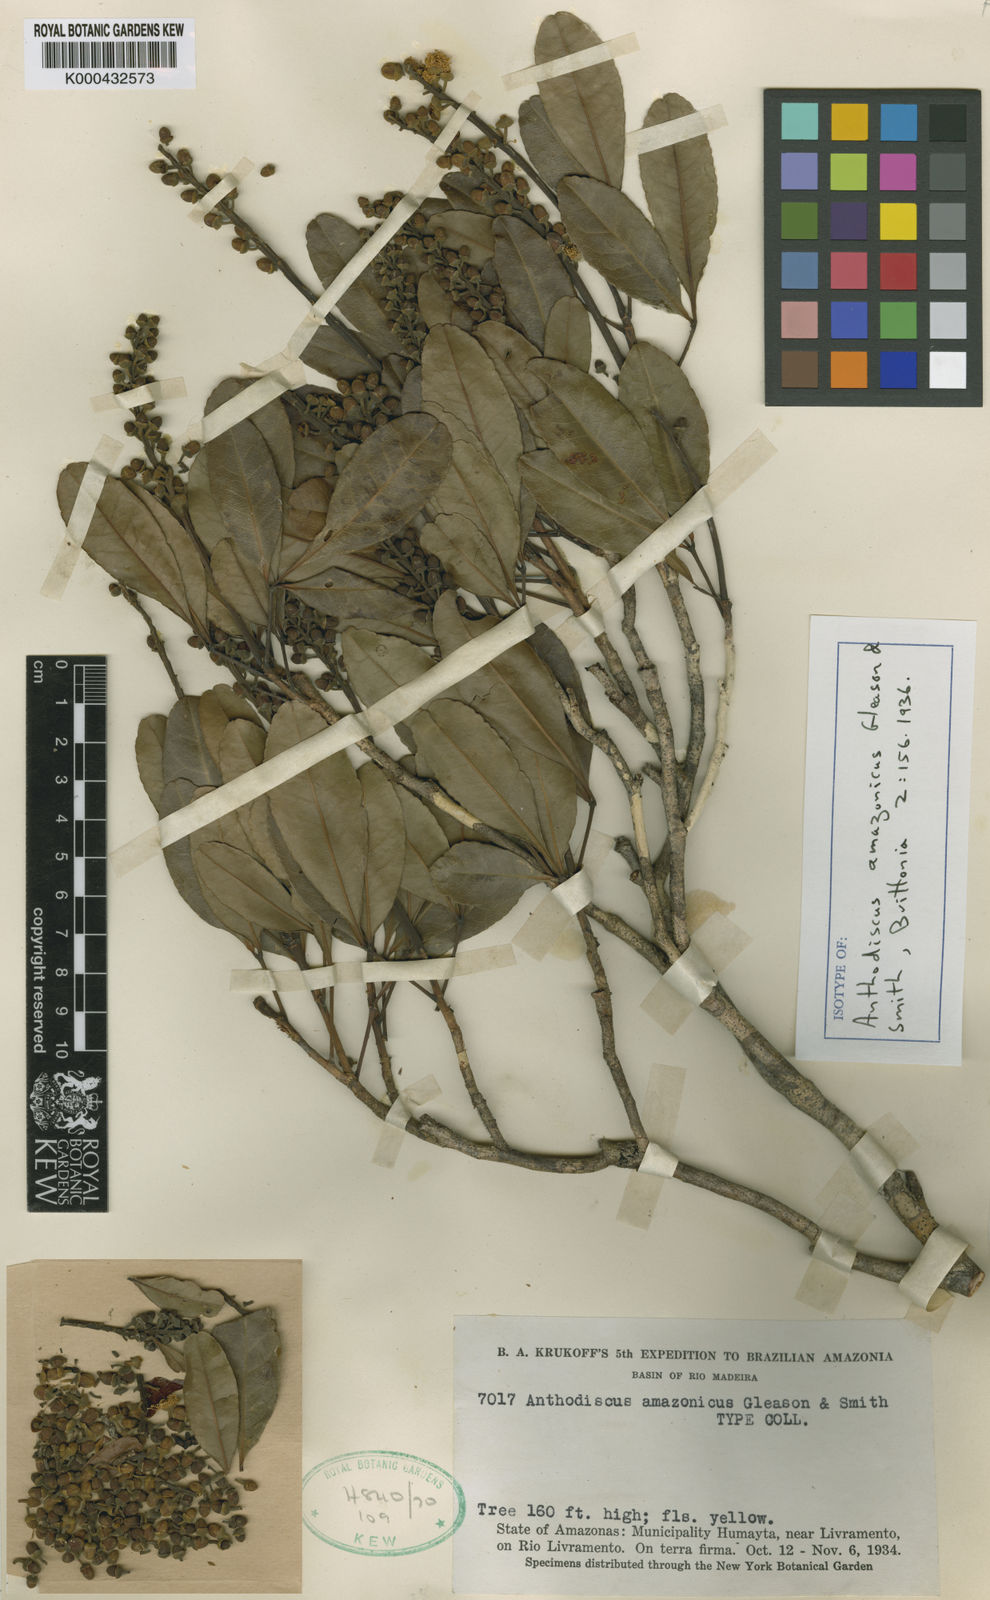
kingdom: Plantae
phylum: Tracheophyta
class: Magnoliopsida
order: Malpighiales
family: Caryocaraceae
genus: Anthodiscus
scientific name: Anthodiscus amazonicus
